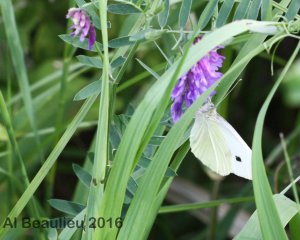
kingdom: Animalia
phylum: Arthropoda
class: Insecta
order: Lepidoptera
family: Pieridae
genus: Pieris
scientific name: Pieris rapae
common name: Cabbage White
